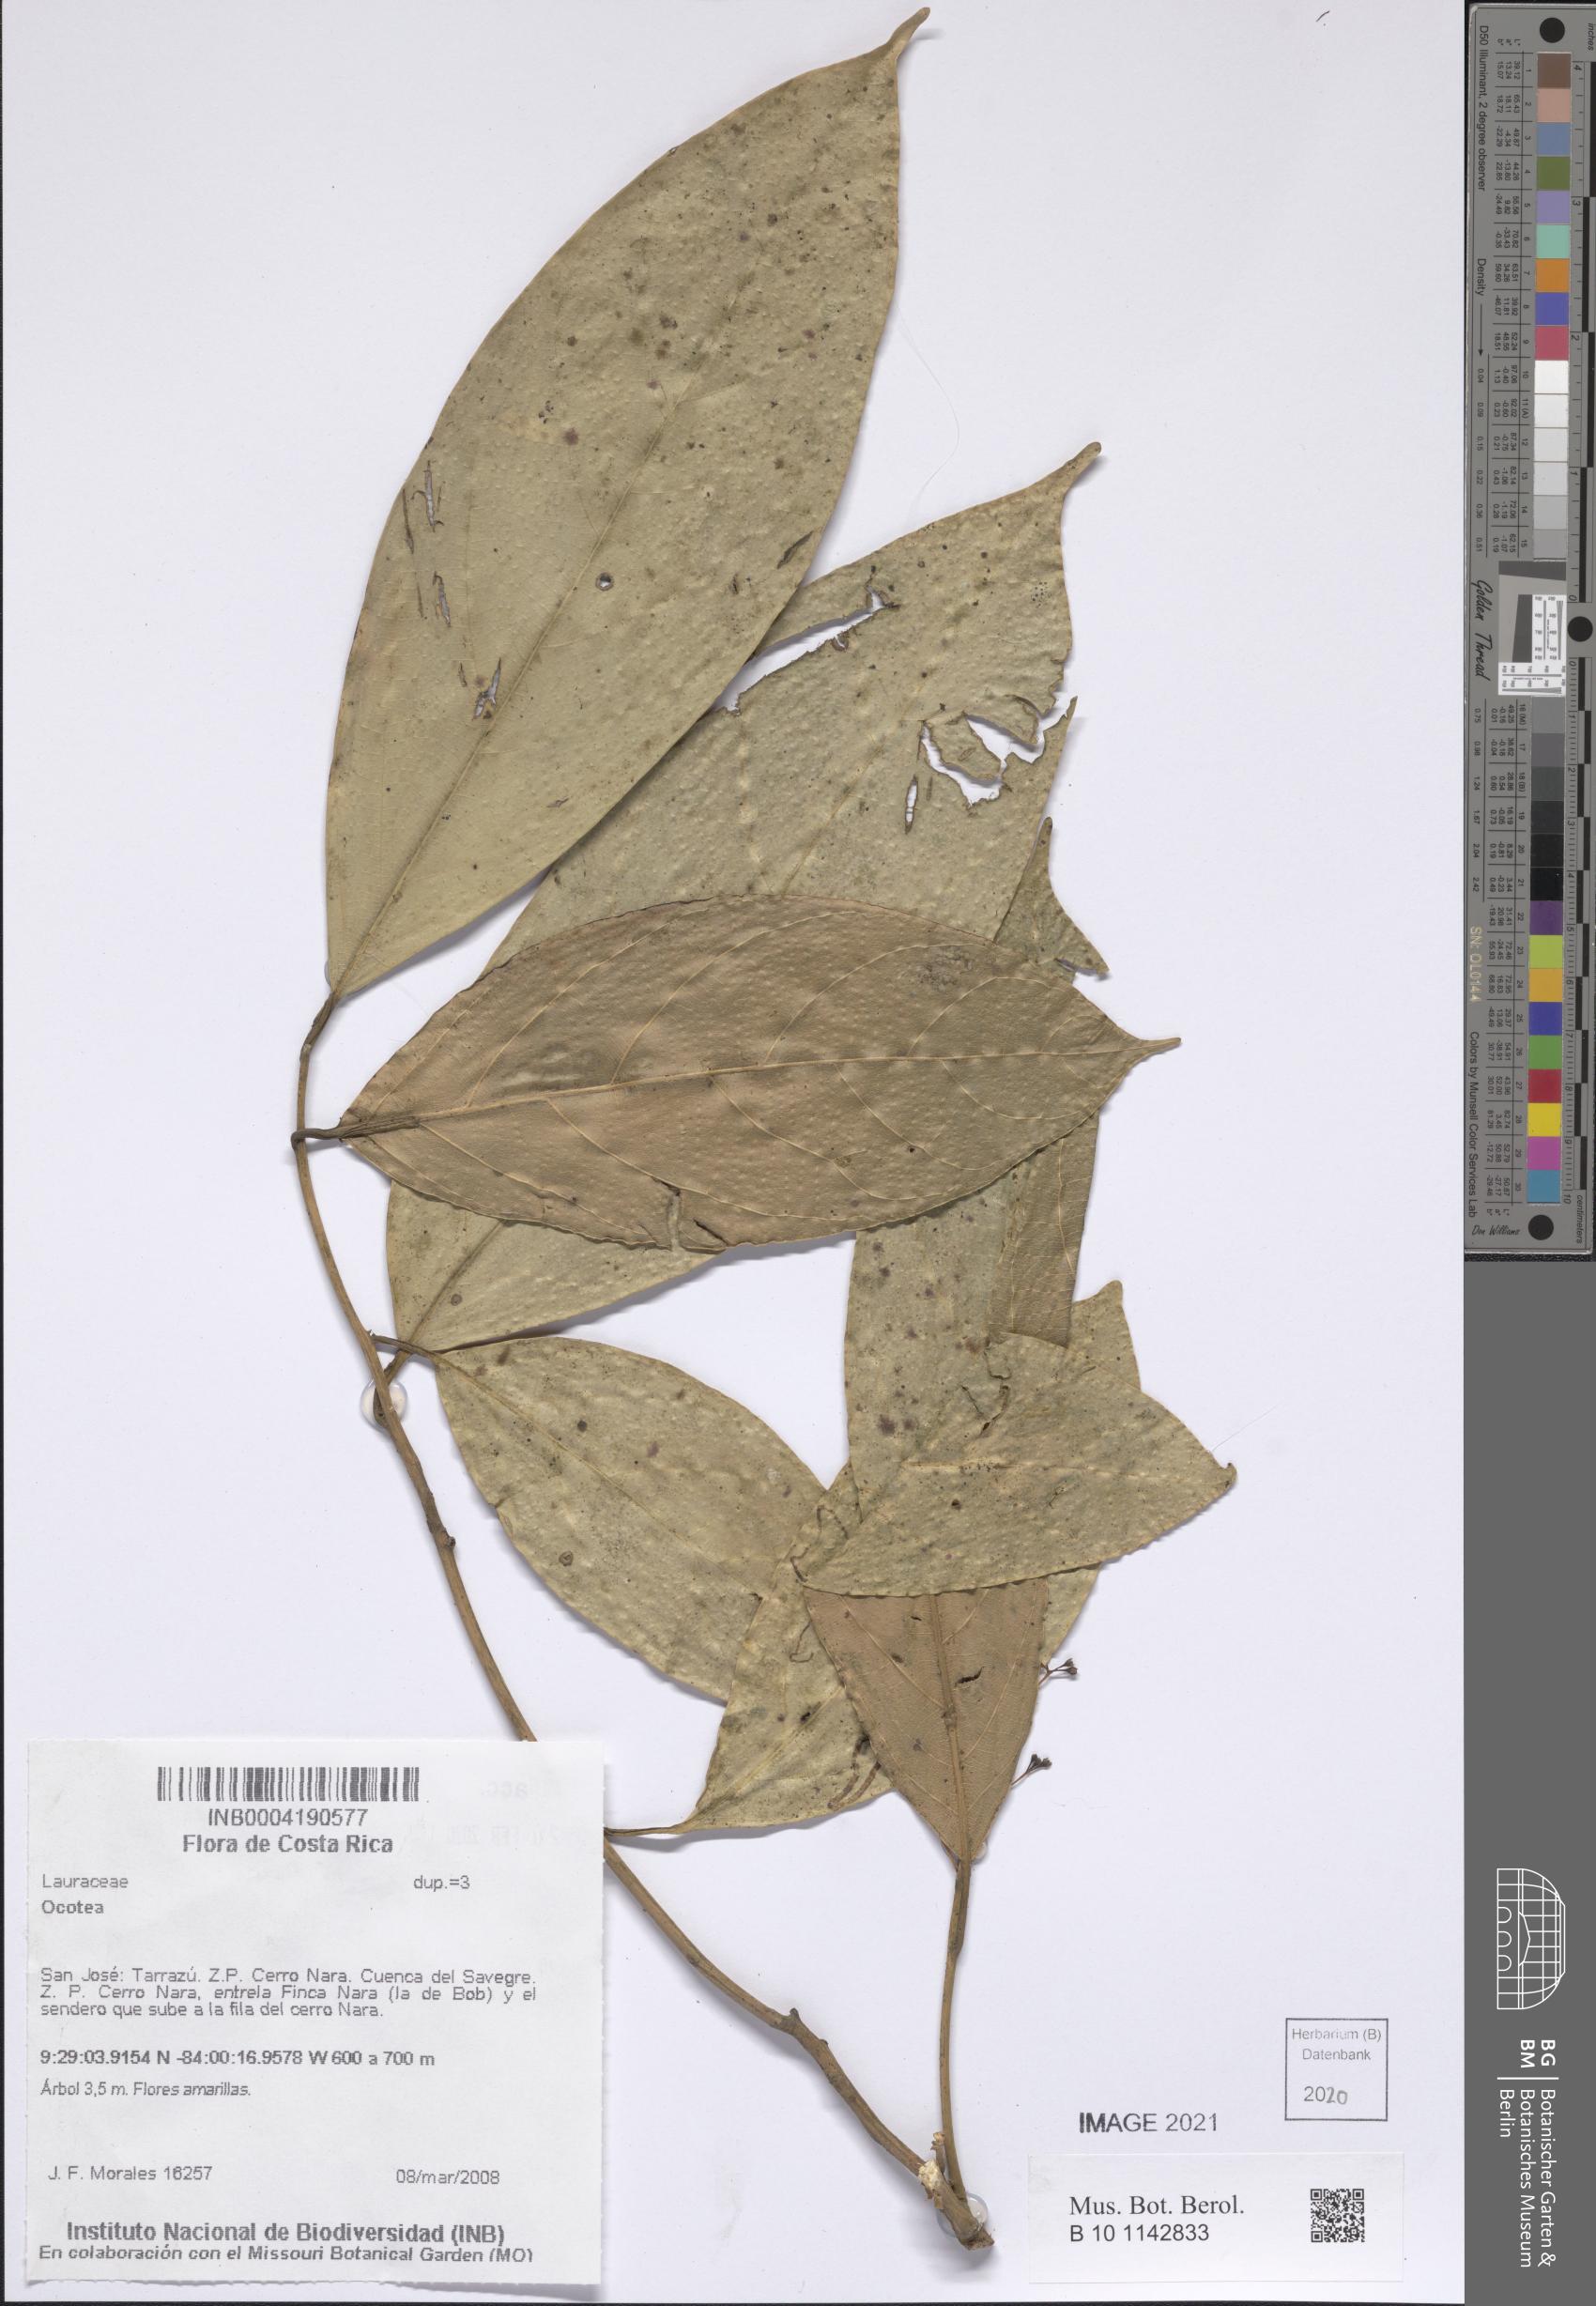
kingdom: Plantae
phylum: Tracheophyta
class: Magnoliopsida
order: Laurales
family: Lauraceae
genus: Ocotea
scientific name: Ocotea
